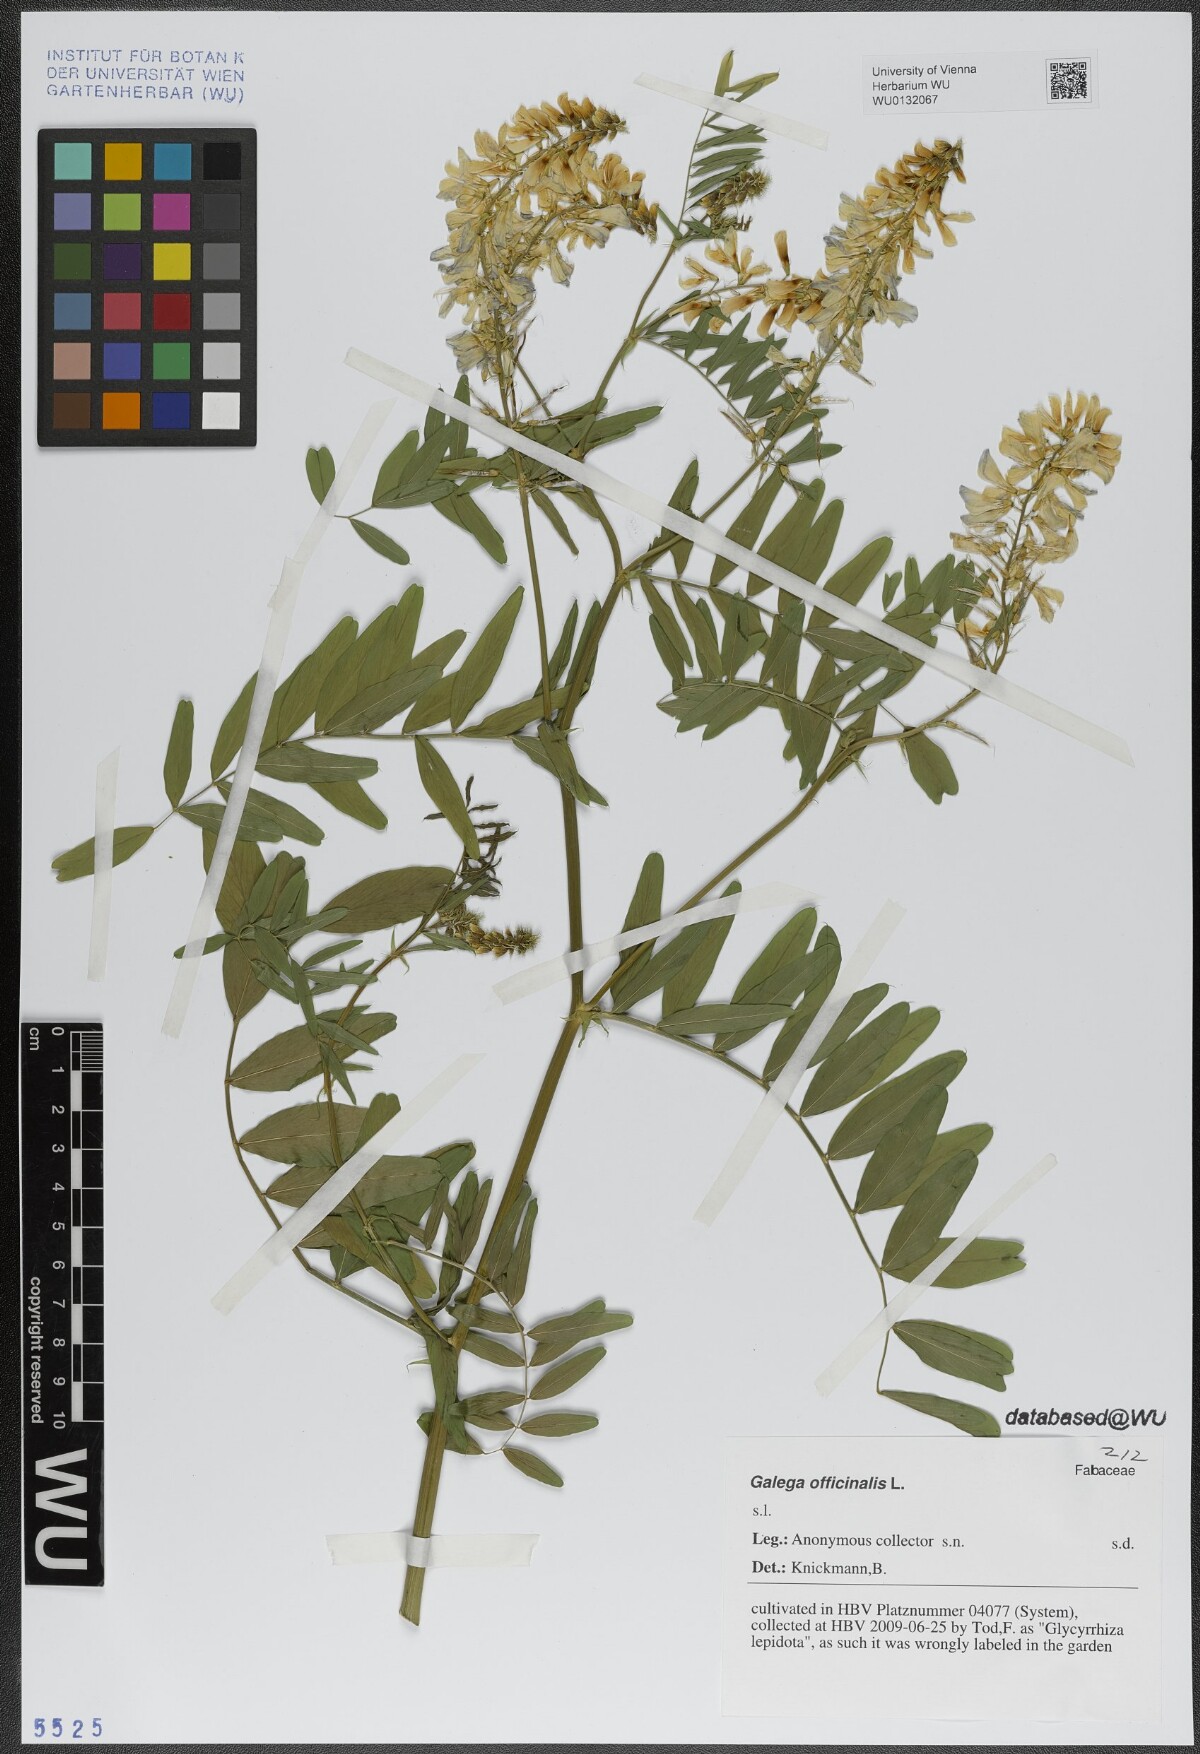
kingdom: Plantae
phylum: Tracheophyta
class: Magnoliopsida
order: Fabales
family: Fabaceae
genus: Galega
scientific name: Galega officinalis
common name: Goat's-rue
